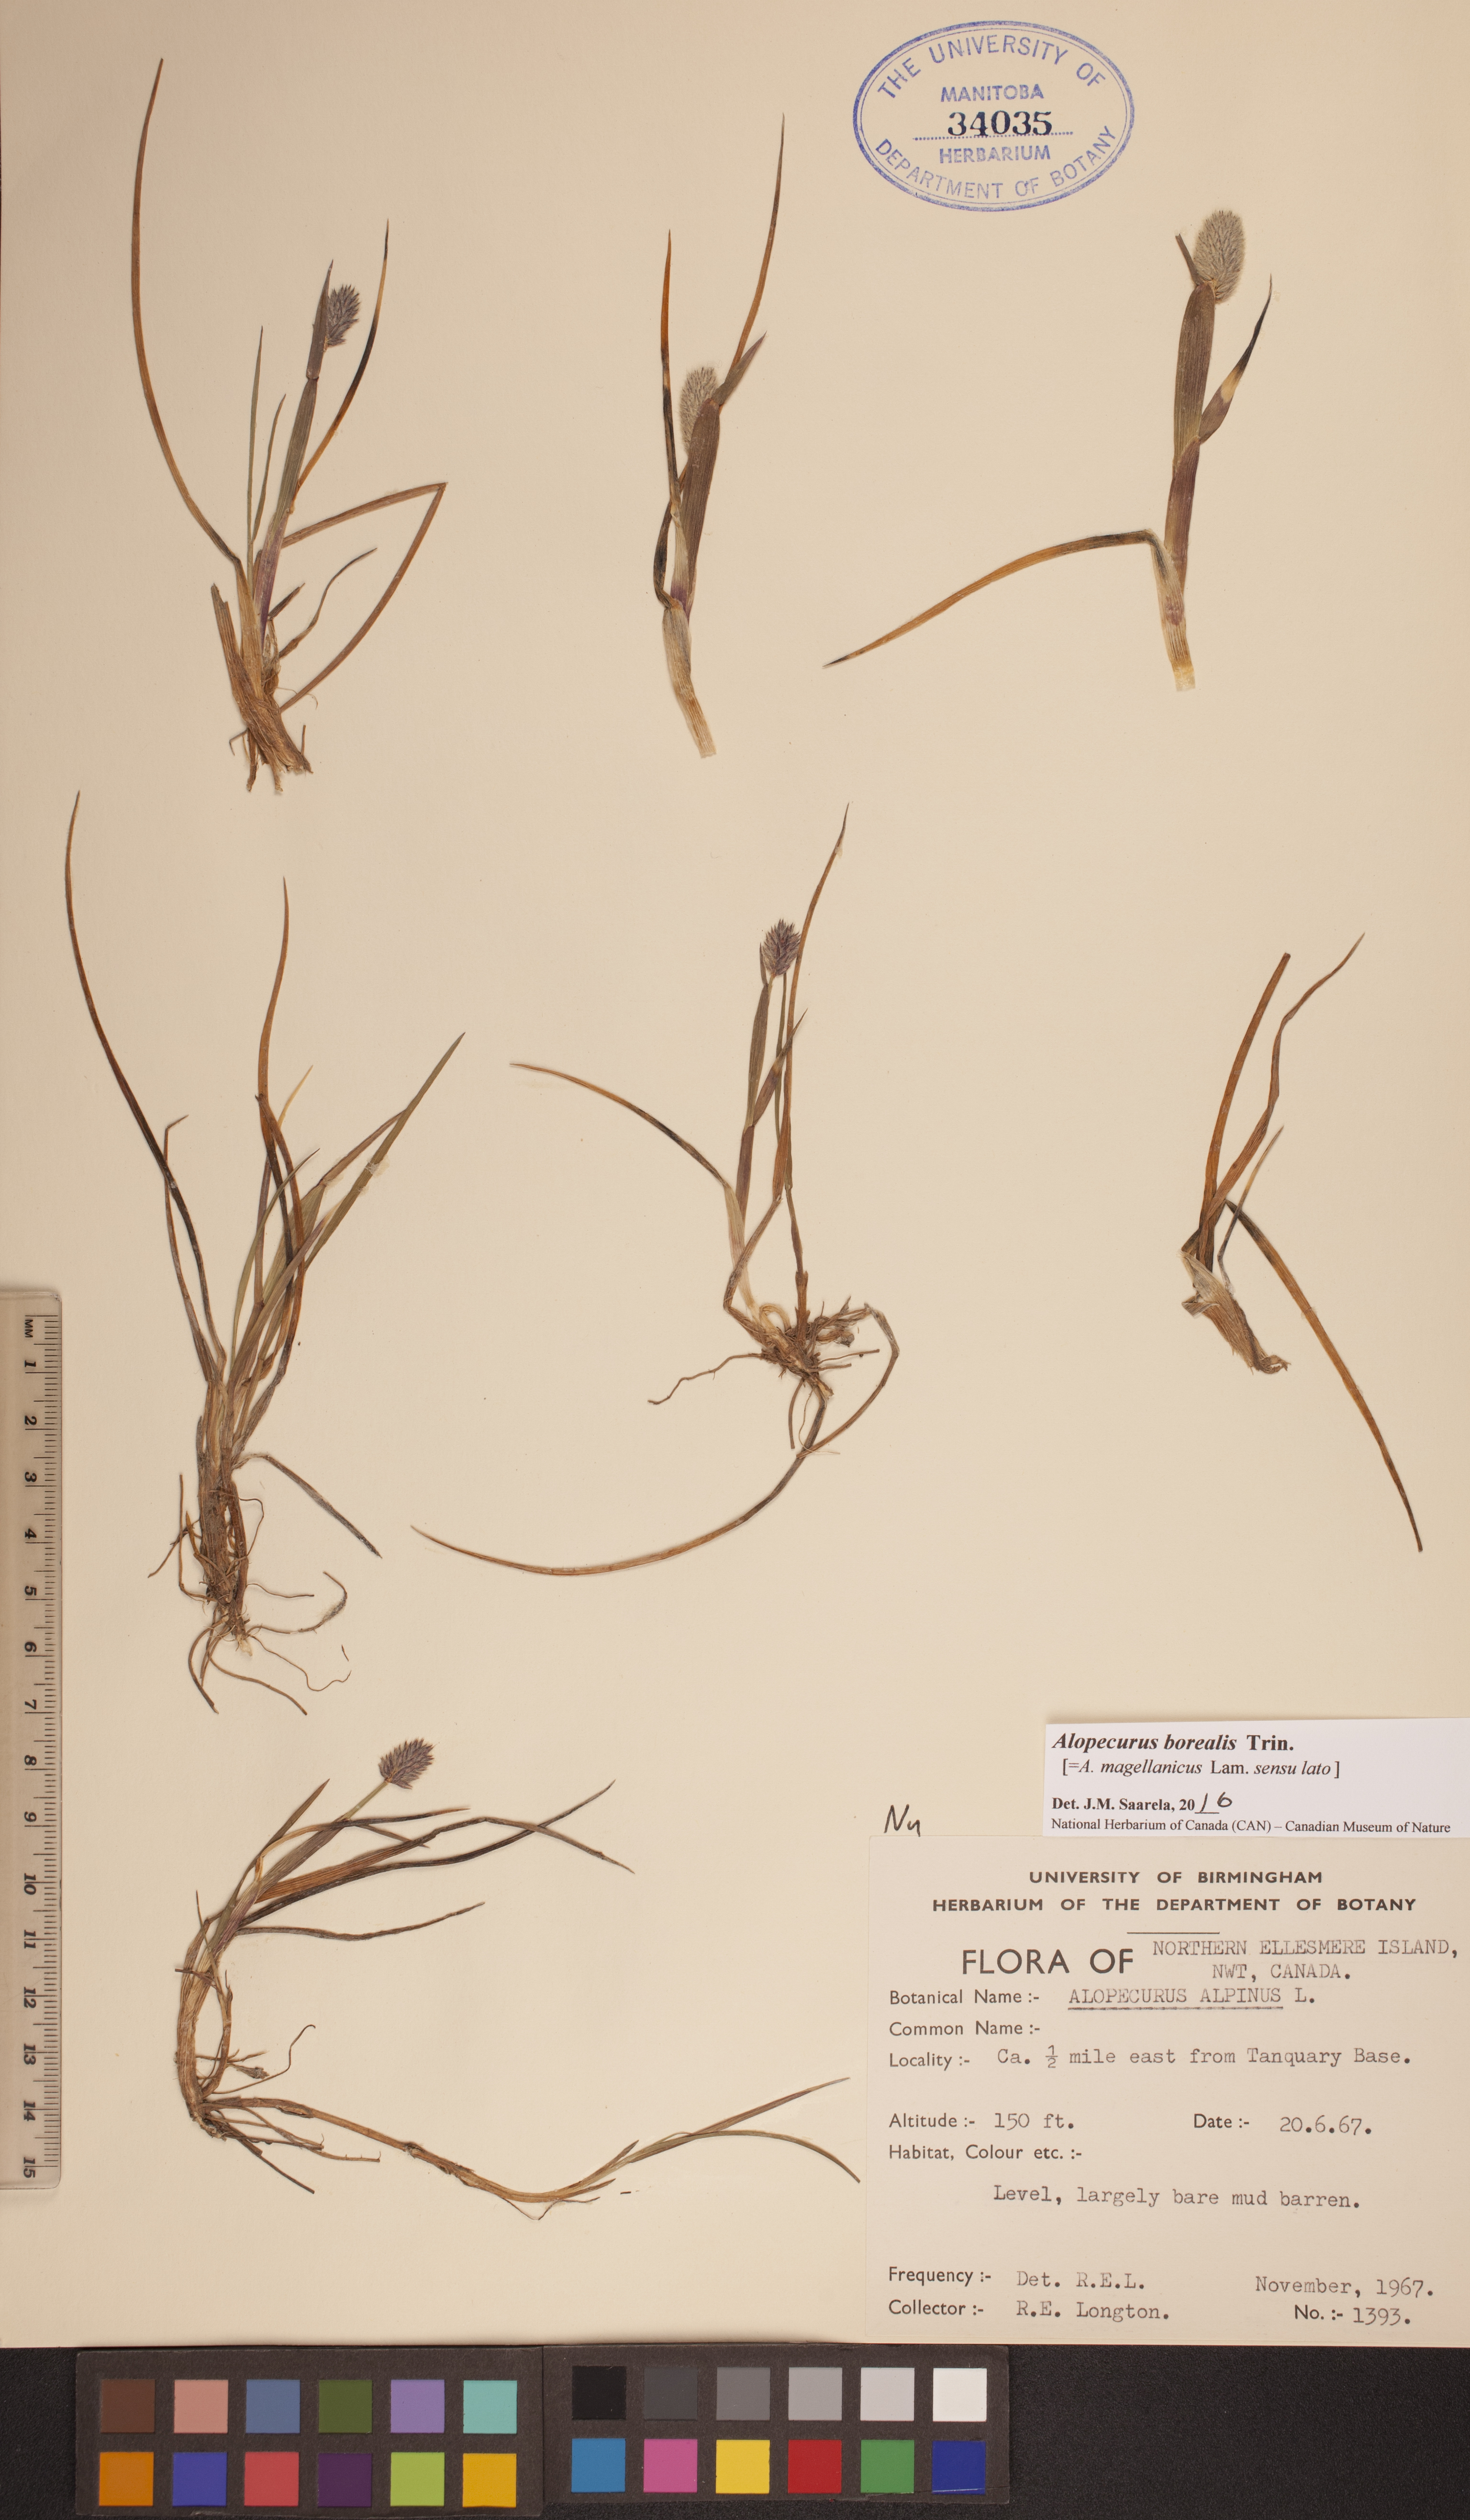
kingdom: Plantae
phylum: Tracheophyta
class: Liliopsida
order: Poales
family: Poaceae
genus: Alopecurus
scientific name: Alopecurus magellanicus
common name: Alpine foxtail
